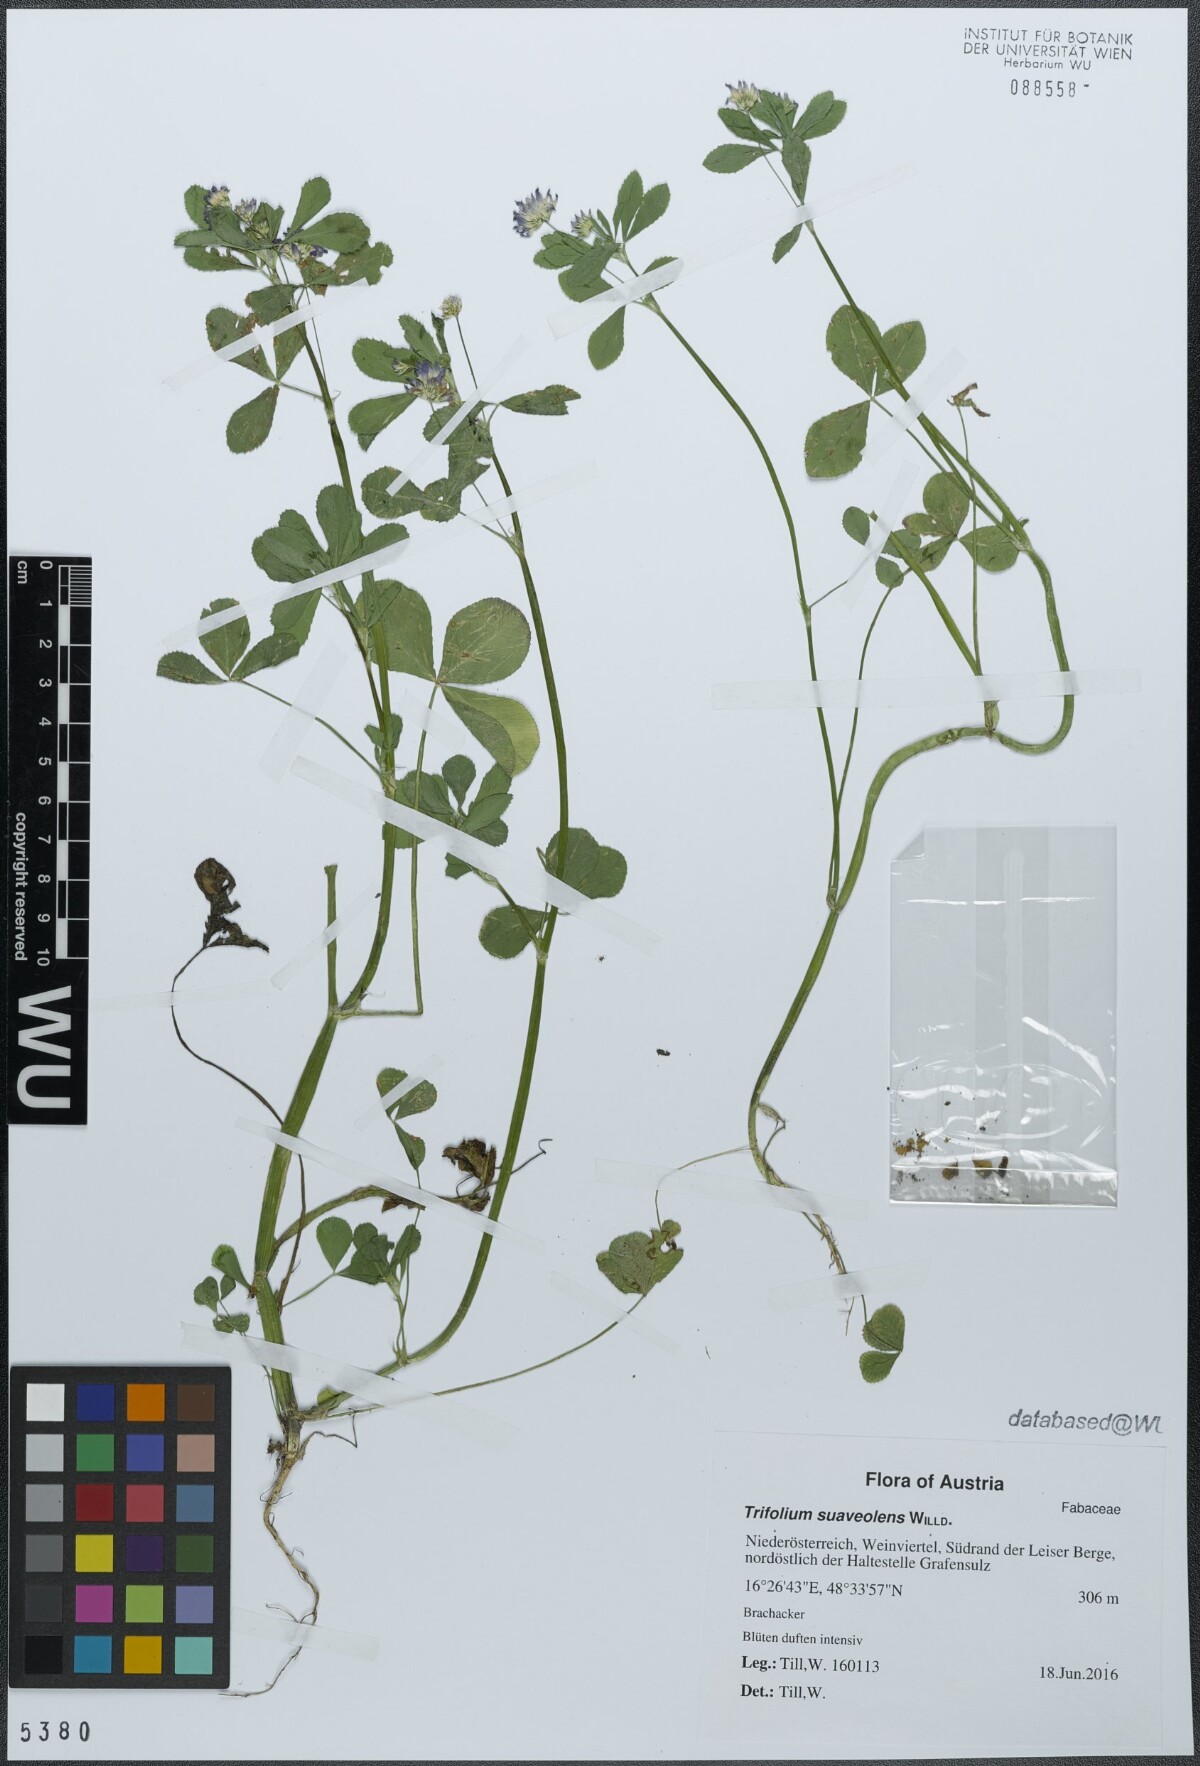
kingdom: Plantae
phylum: Tracheophyta
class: Magnoliopsida
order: Fabales
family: Fabaceae
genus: Trifolium
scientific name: Trifolium resupinatum
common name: Reversed clover
